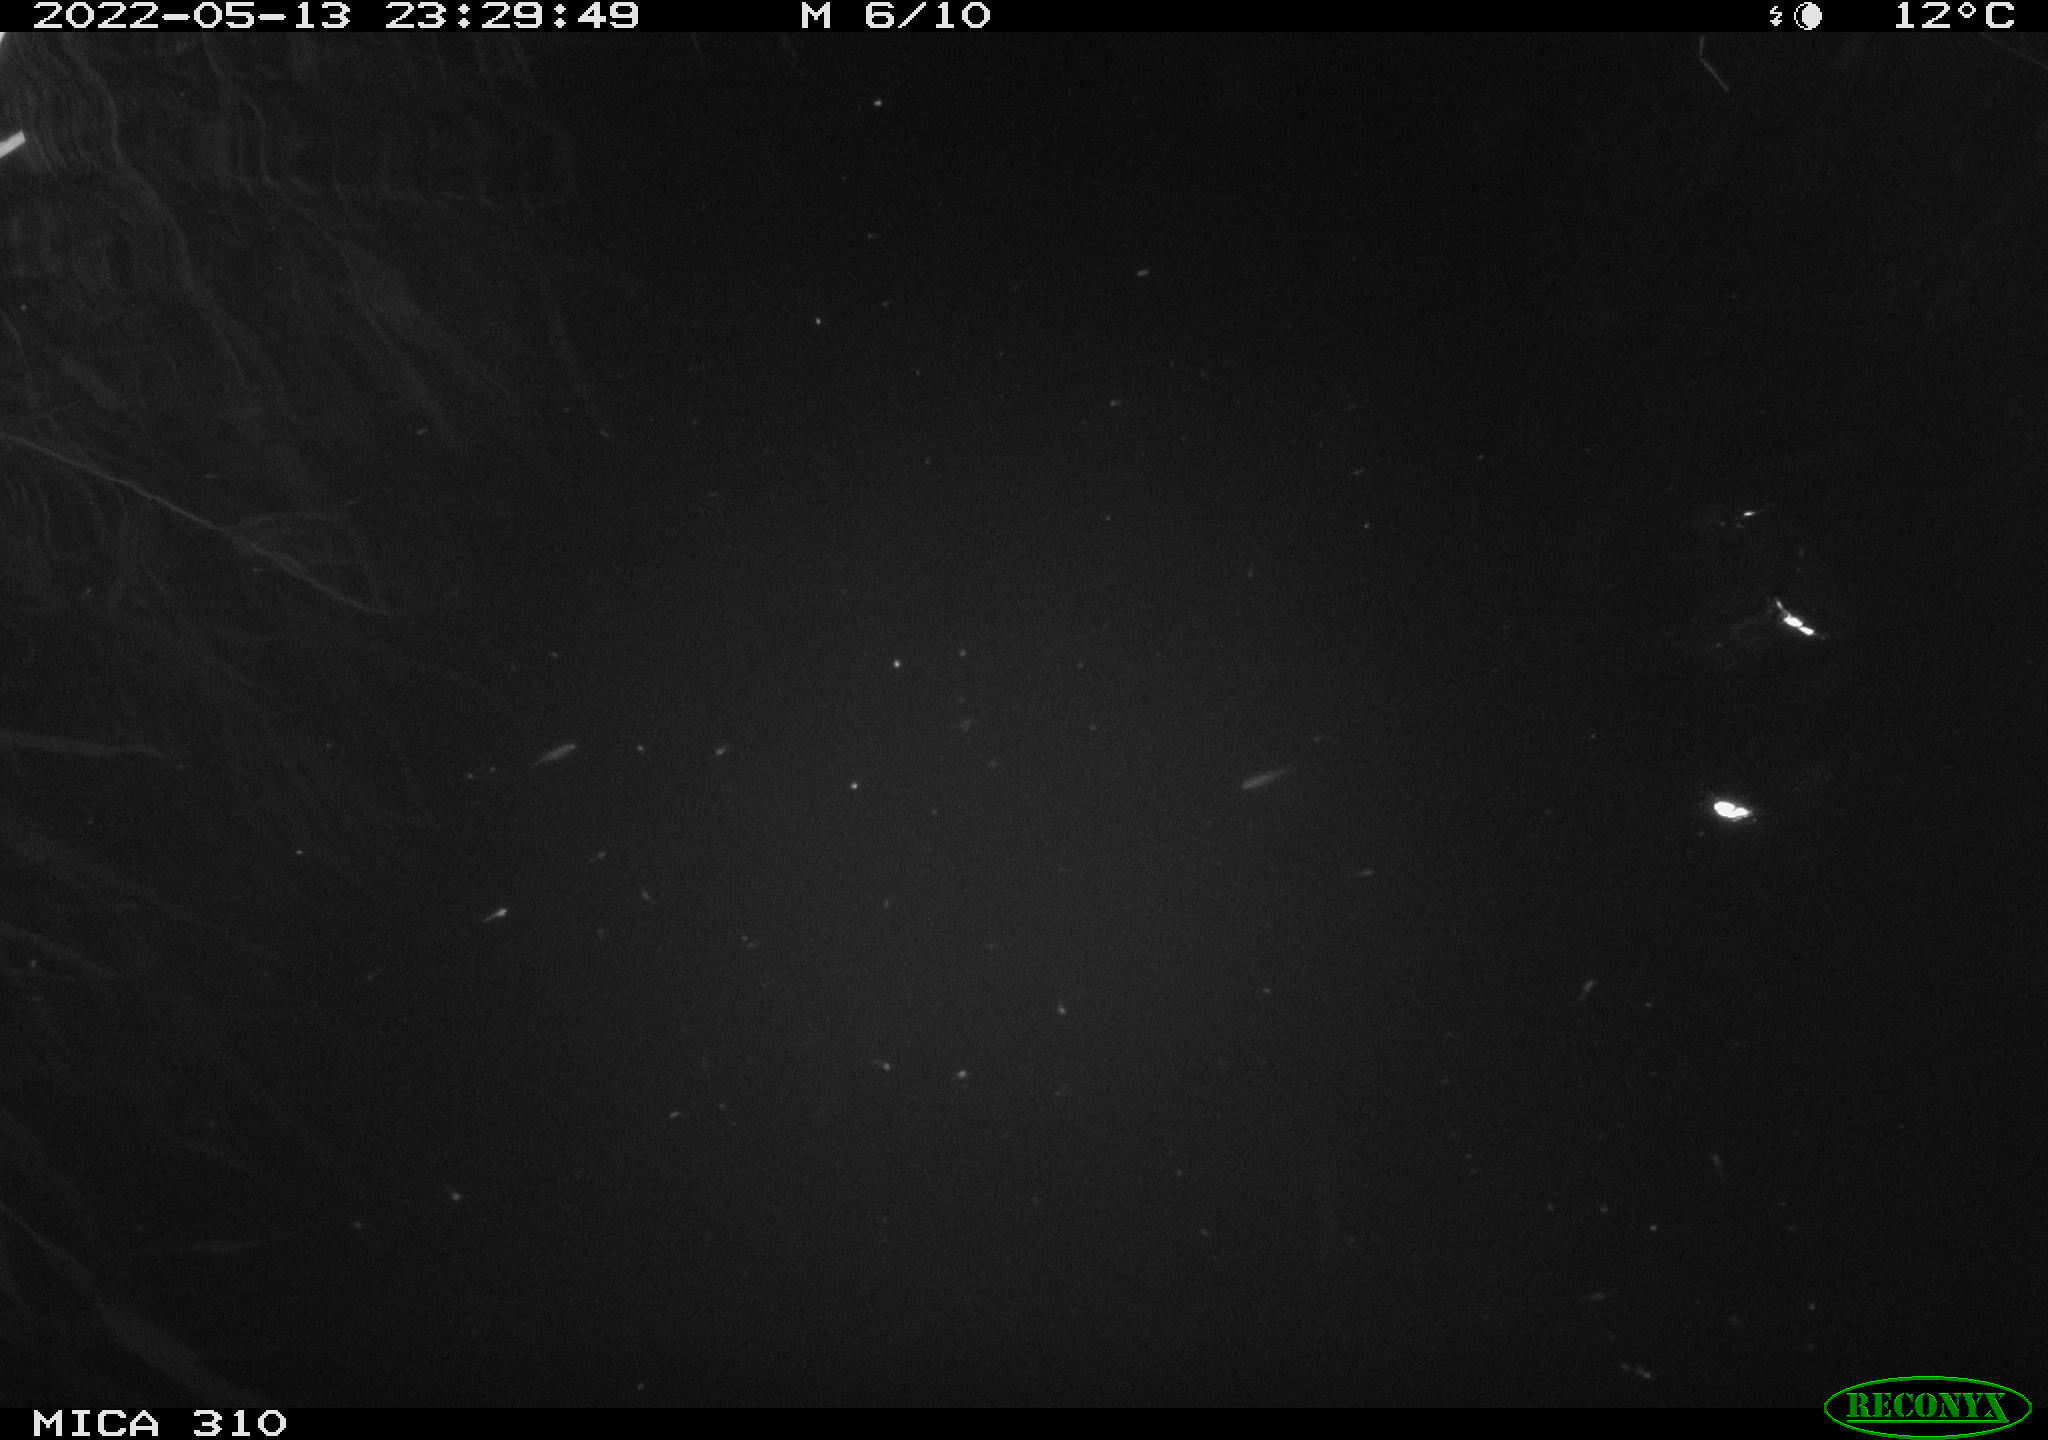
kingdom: Animalia
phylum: Chordata
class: Aves
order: Anseriformes
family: Anatidae
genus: Anas
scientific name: Anas platyrhynchos
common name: Mallard
